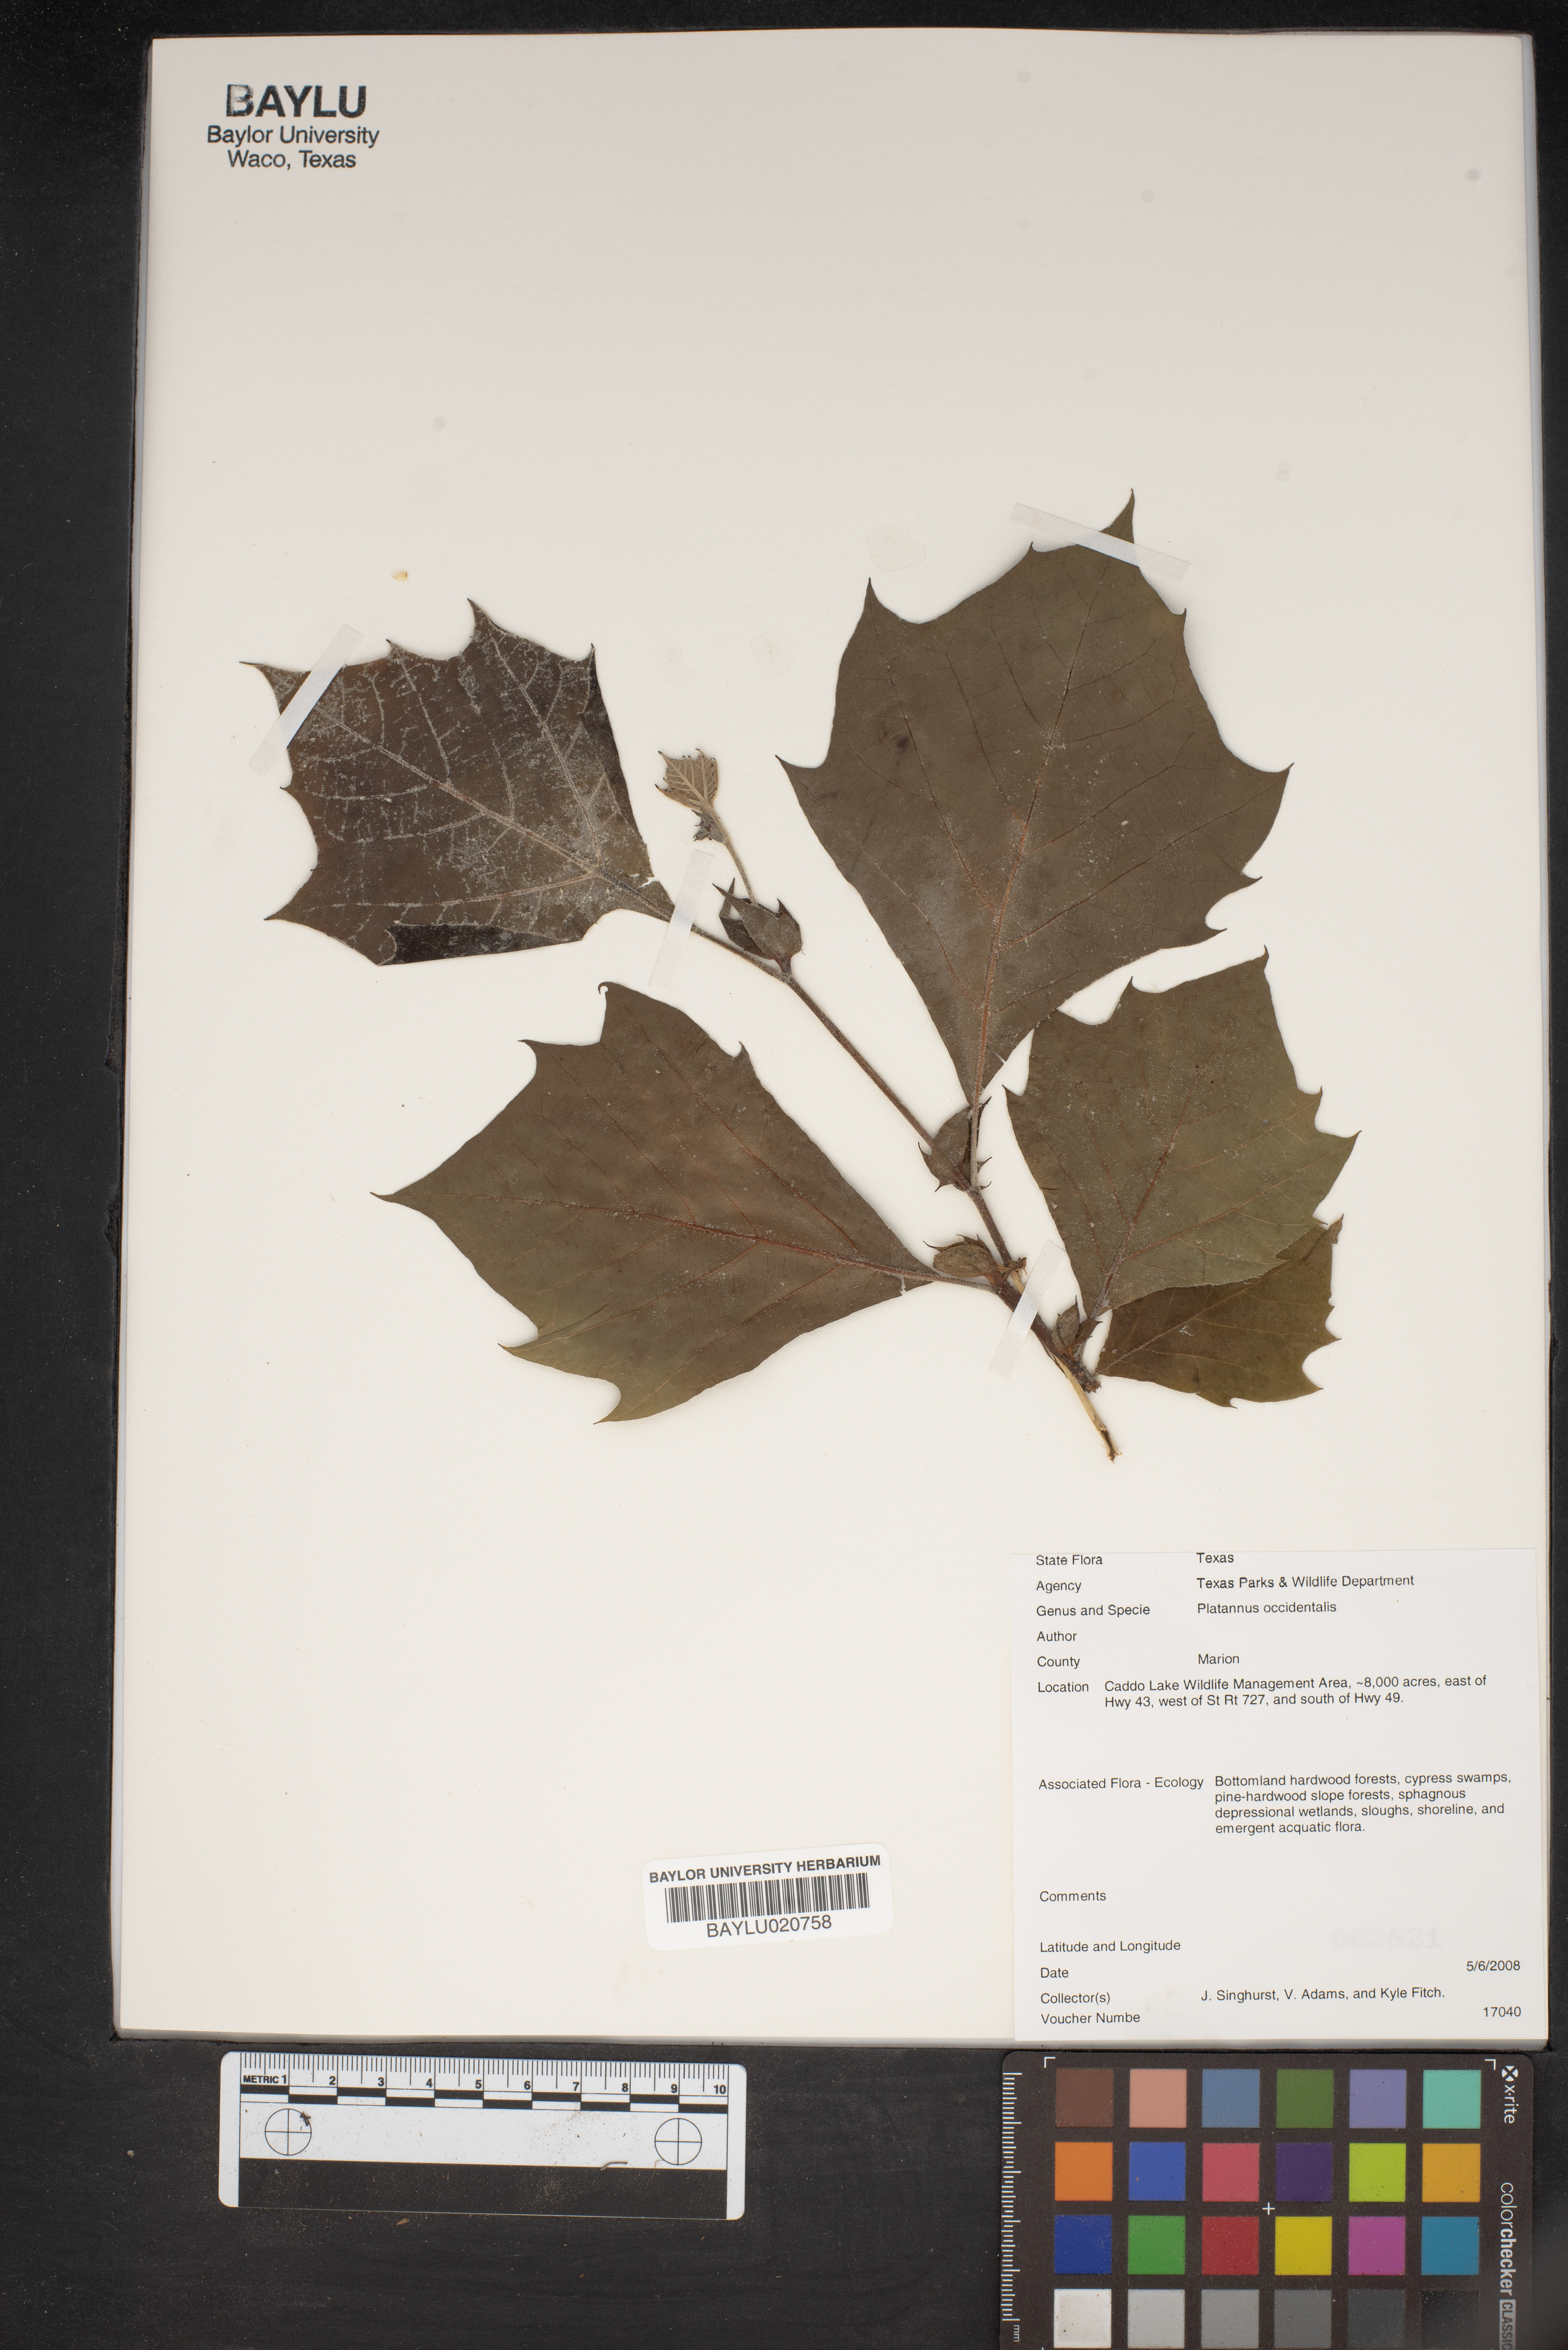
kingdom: Plantae
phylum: Tracheophyta
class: Magnoliopsida
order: Proteales
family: Platanaceae
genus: Platanus
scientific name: Platanus occidentalis
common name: American sycamore
